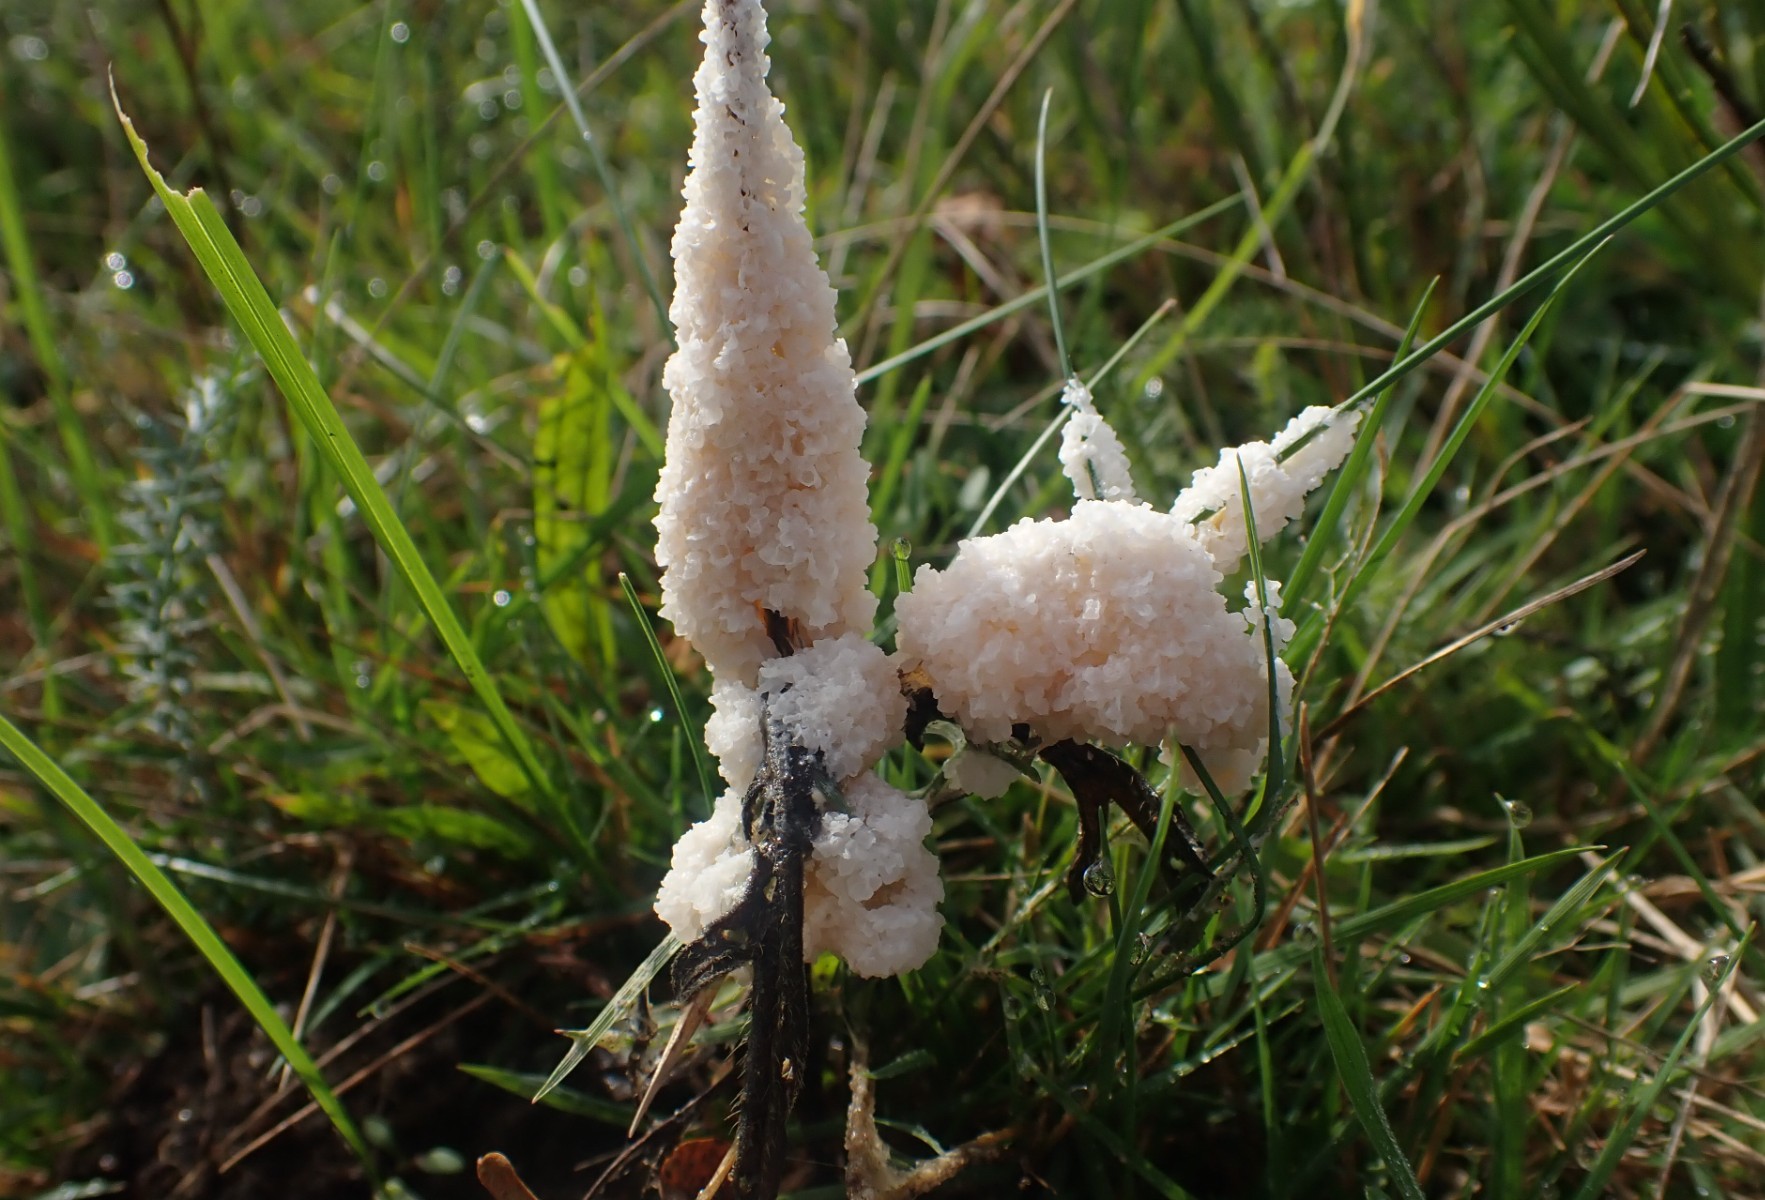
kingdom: Protozoa
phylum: Mycetozoa
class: Myxomycetes
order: Physarales
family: Physaraceae
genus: Didymium
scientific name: Didymium
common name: urteskum
